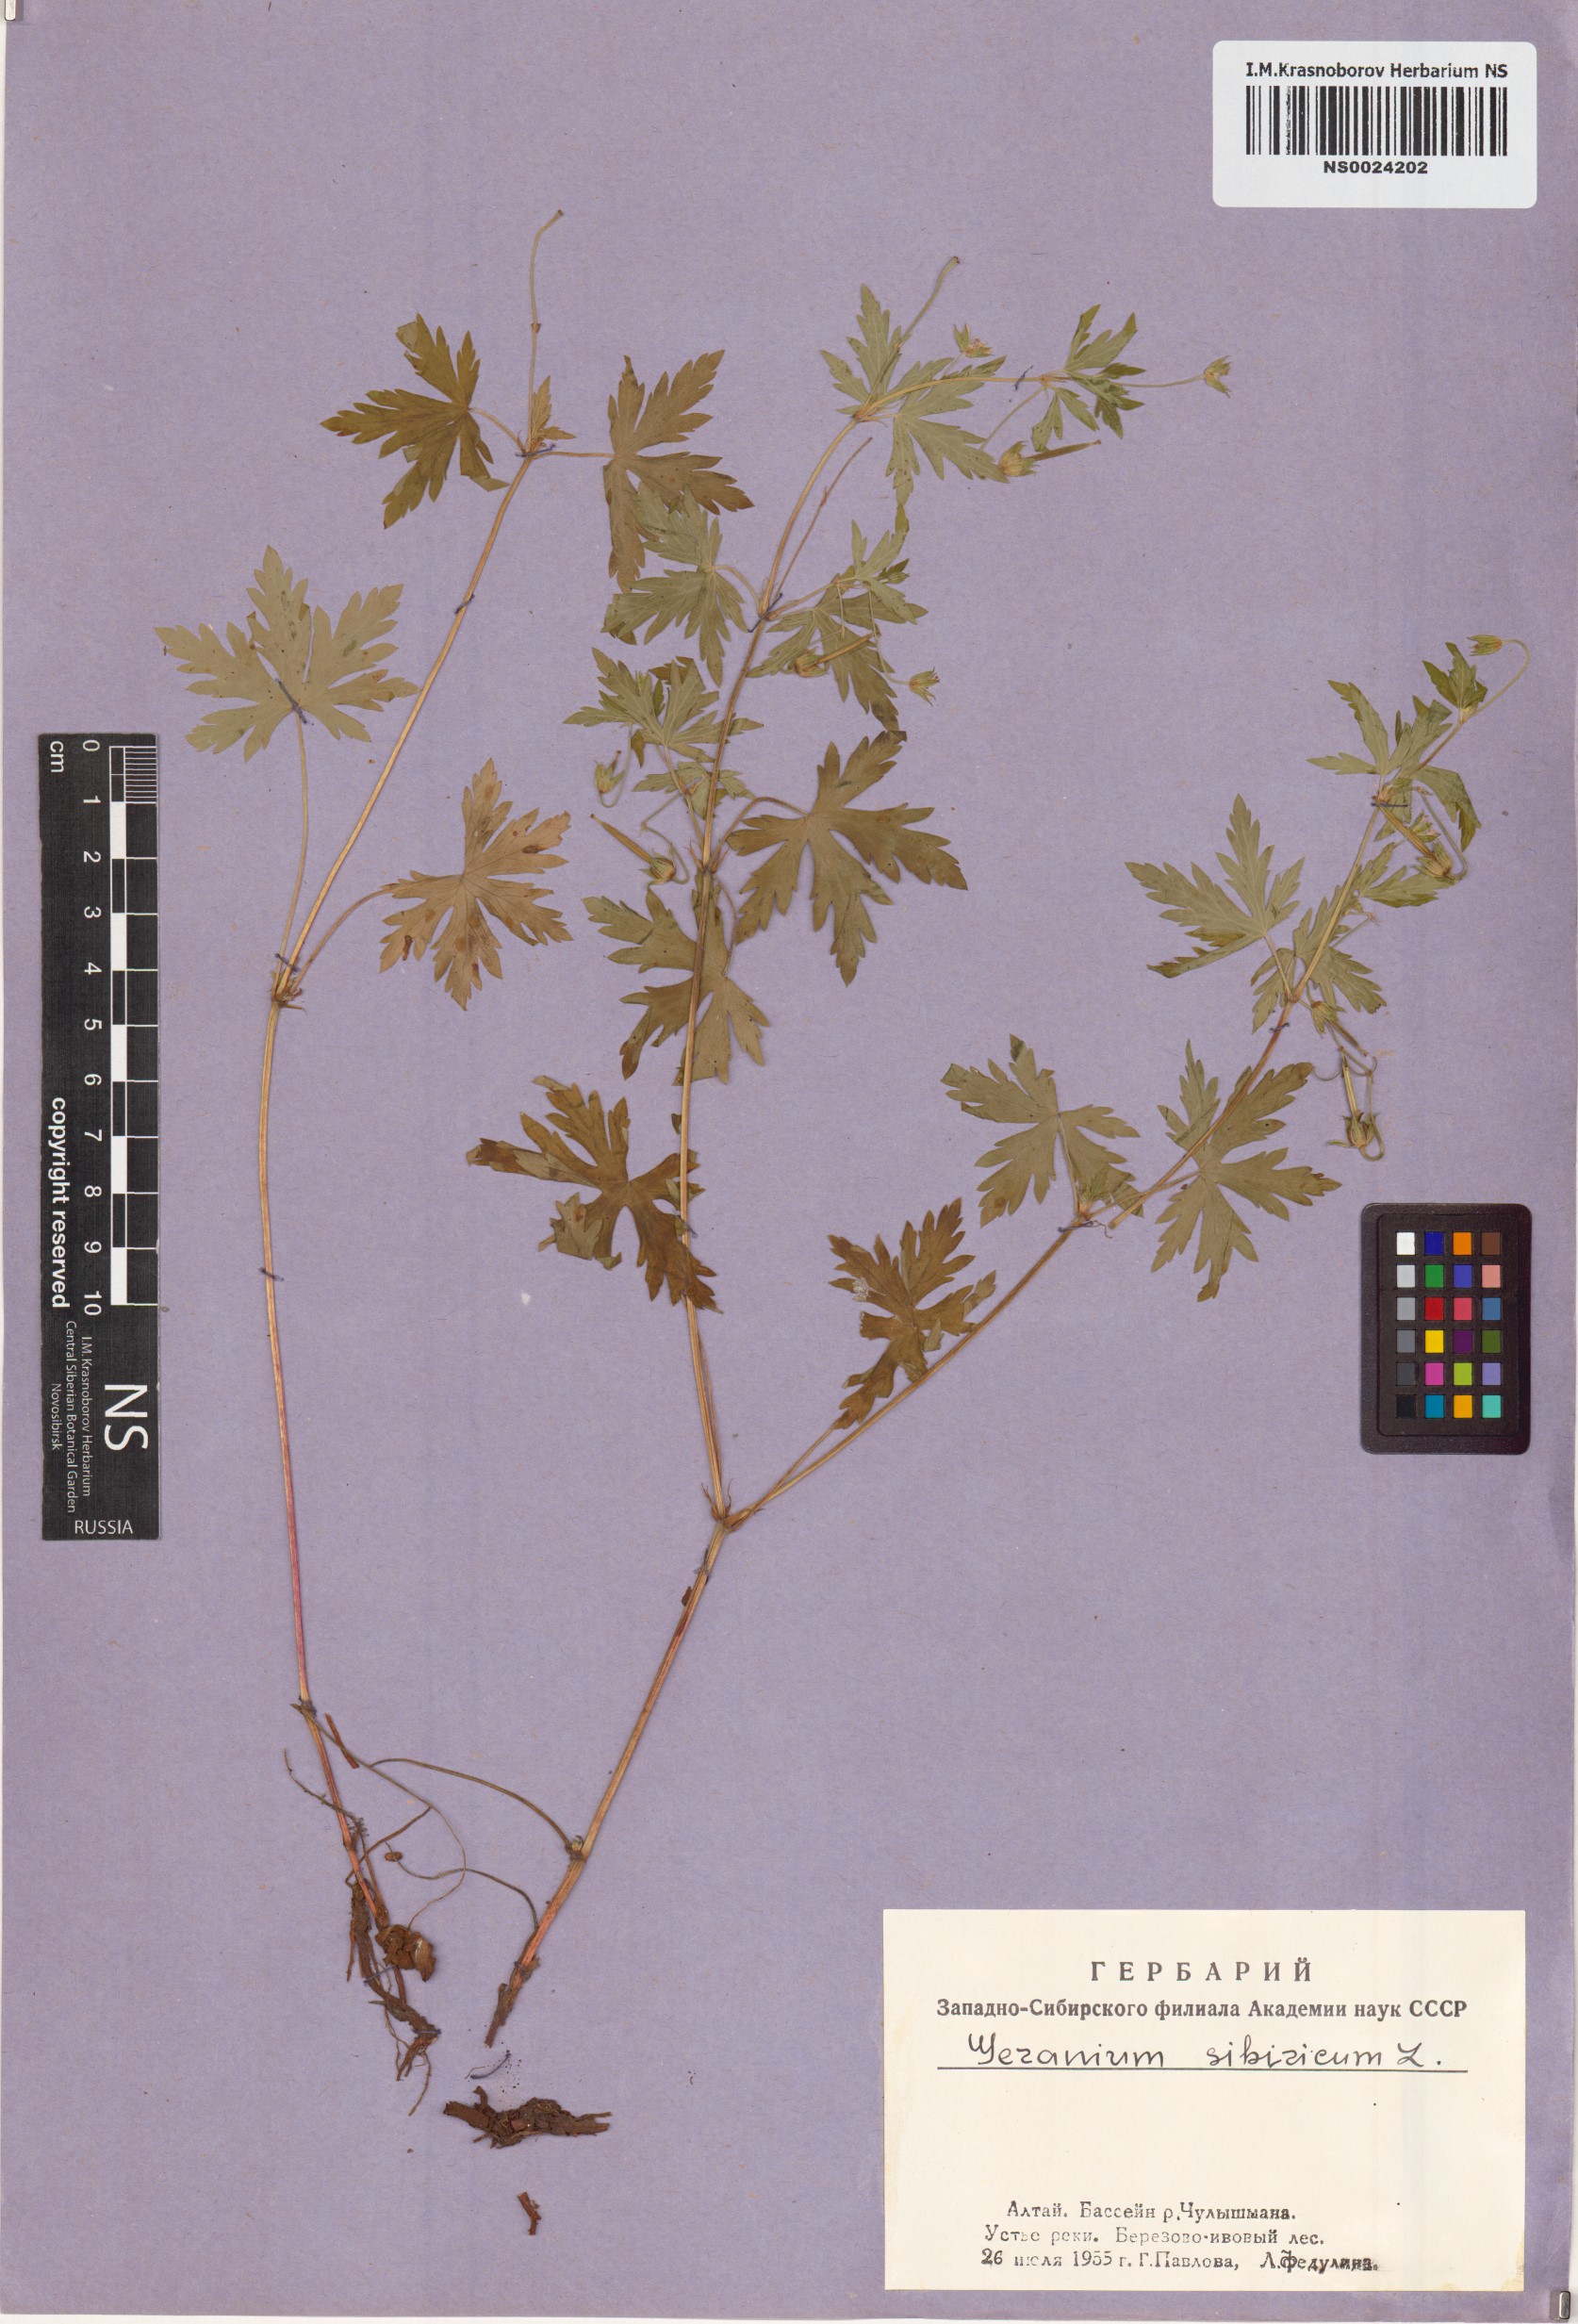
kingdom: Plantae
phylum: Tracheophyta
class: Magnoliopsida
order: Geraniales
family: Geraniaceae
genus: Geranium
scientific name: Geranium sibiricum
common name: Siberian crane's-bill
